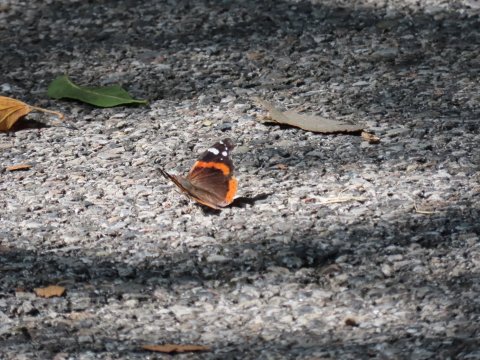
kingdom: Animalia
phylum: Arthropoda
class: Insecta
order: Lepidoptera
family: Nymphalidae
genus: Vanessa
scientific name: Vanessa atalanta
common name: Red Admiral
